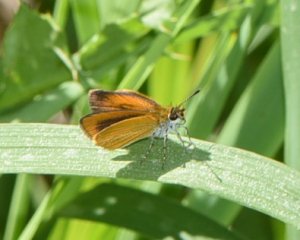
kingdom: Animalia
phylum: Arthropoda
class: Insecta
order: Lepidoptera
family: Hesperiidae
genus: Ancyloxypha
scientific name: Ancyloxypha numitor
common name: Least Skipper
